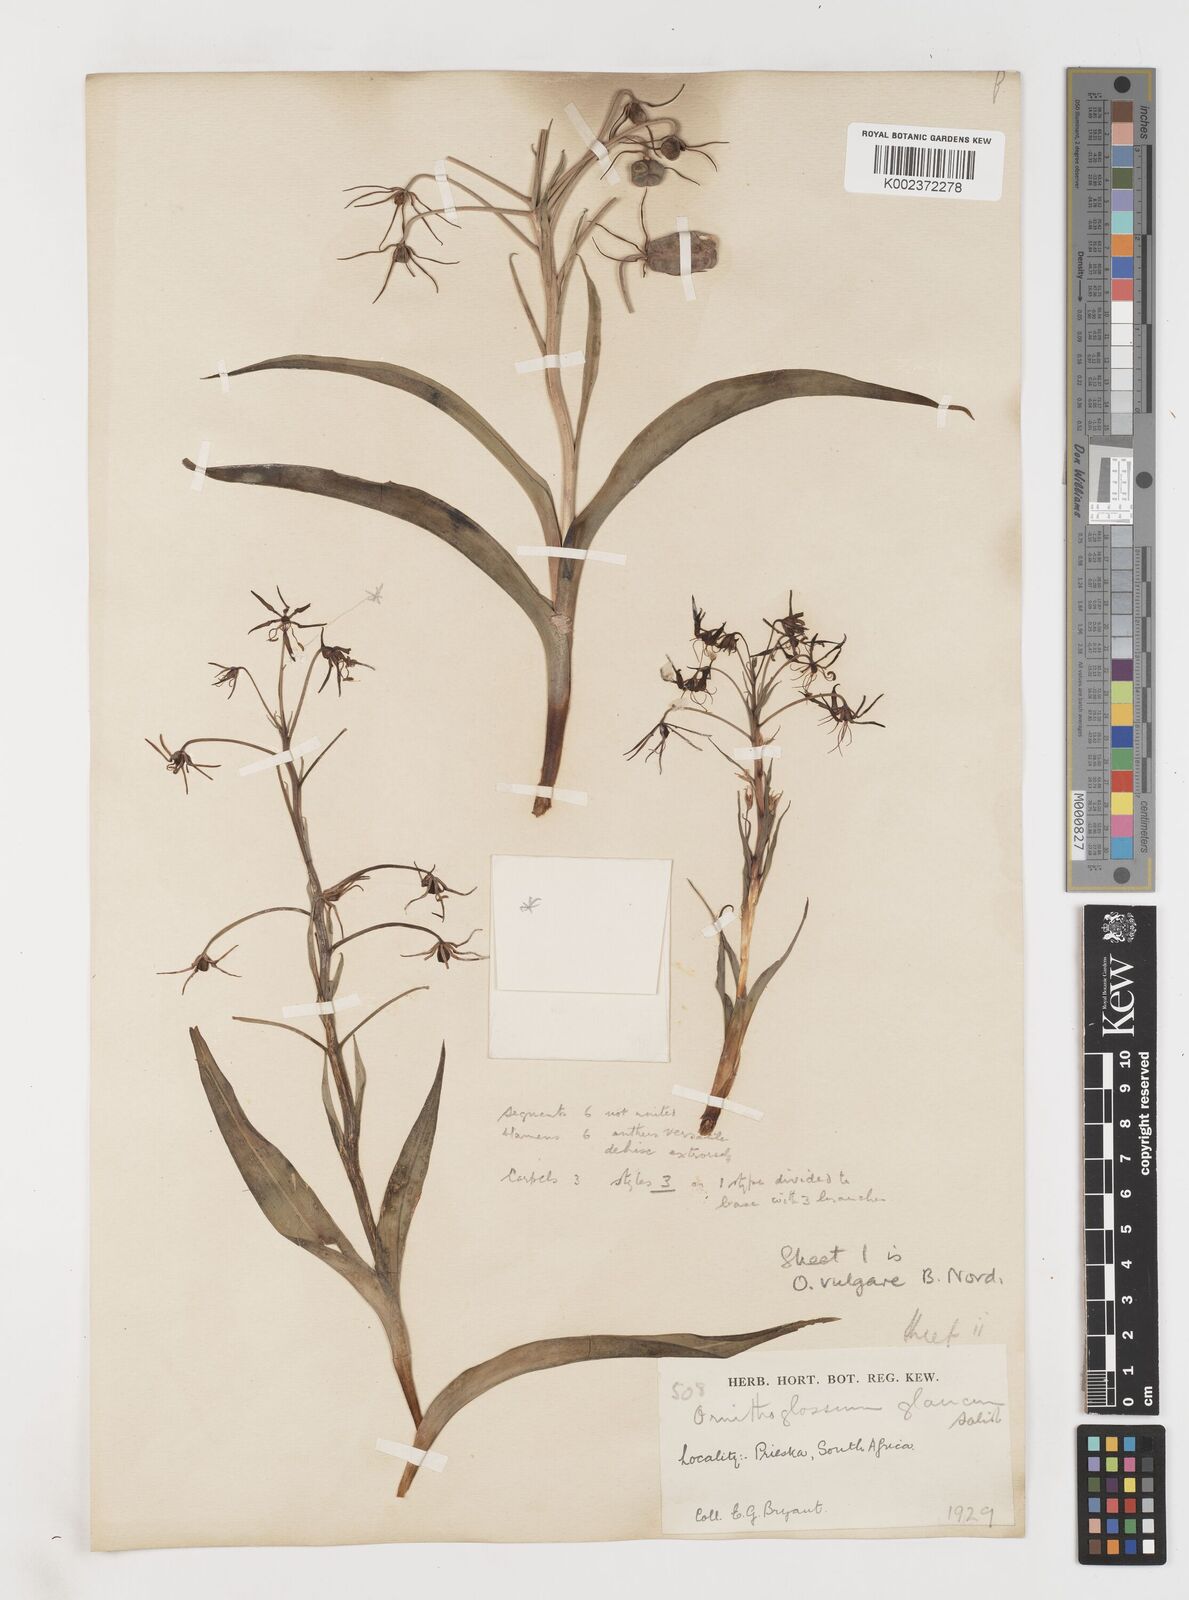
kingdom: Plantae
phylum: Tracheophyta
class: Liliopsida
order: Liliales
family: Colchicaceae
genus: Ornithoglossum
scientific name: Ornithoglossum dinteri
